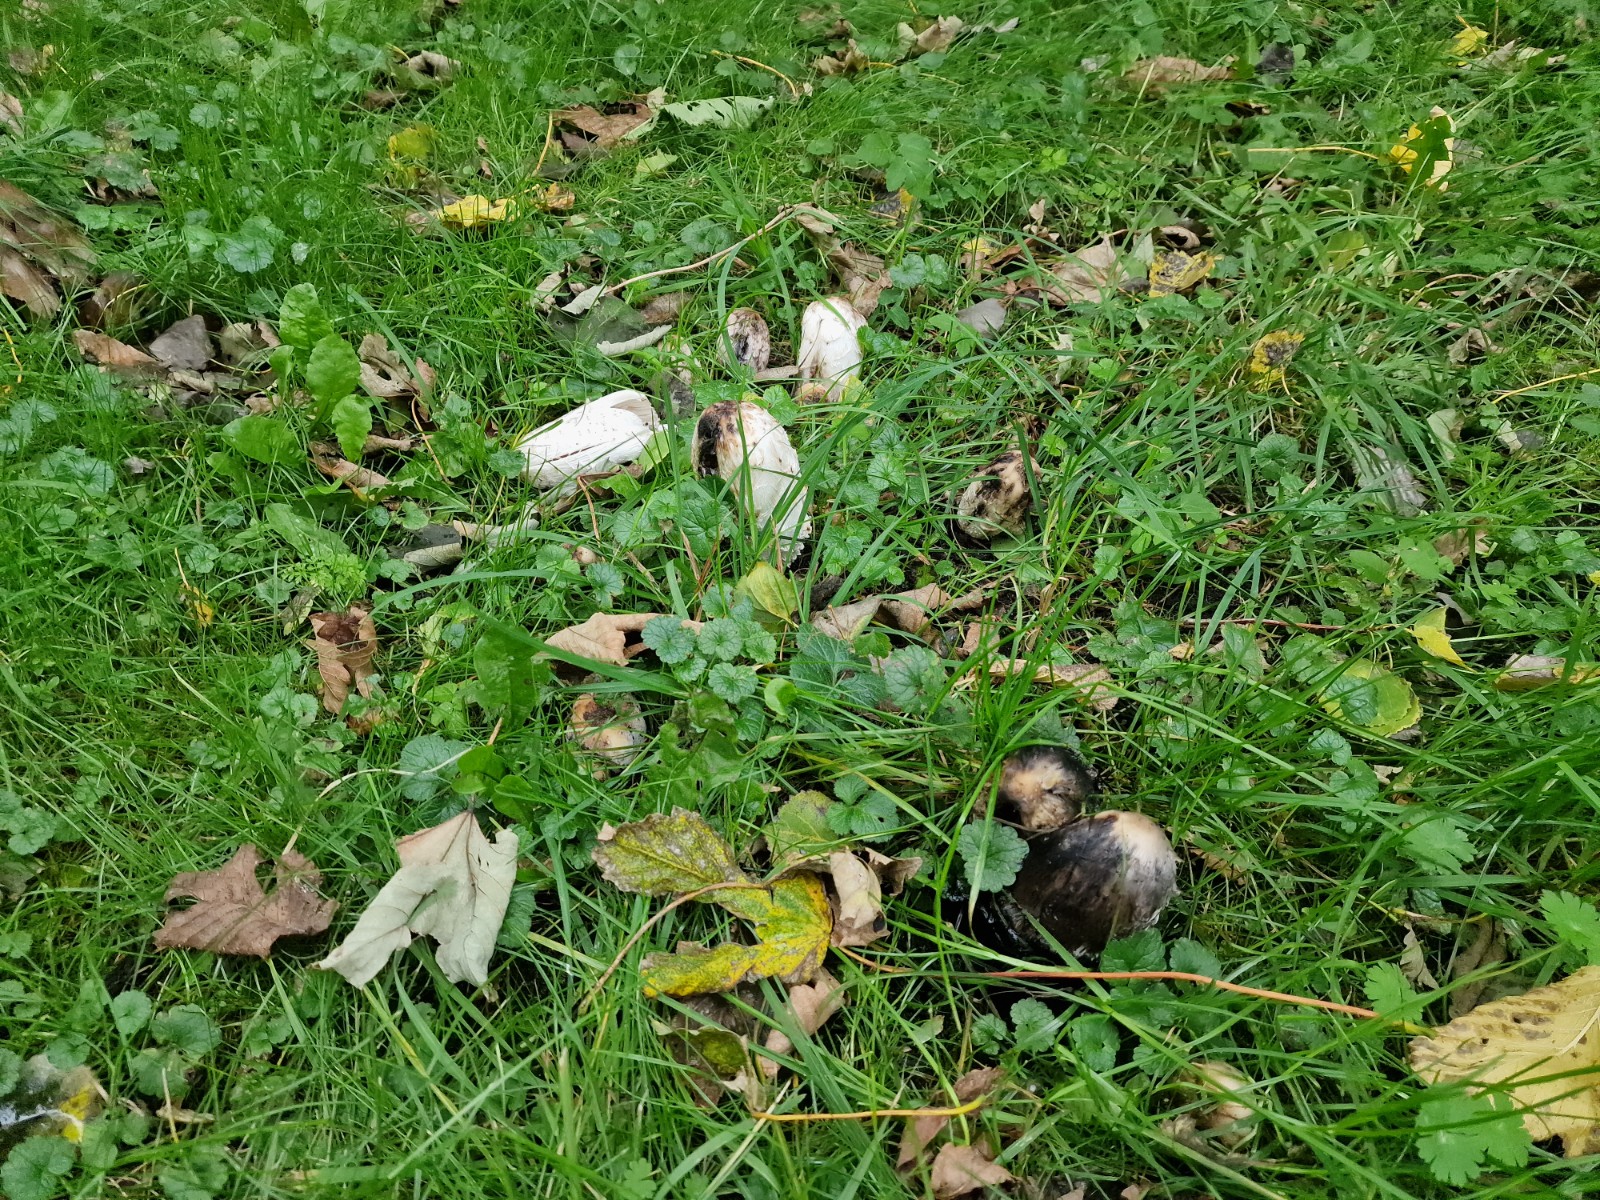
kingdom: Fungi
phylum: Basidiomycota
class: Agaricomycetes
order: Agaricales
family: Agaricaceae
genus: Coprinus
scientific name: Coprinus comatus
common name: stor parykhat
